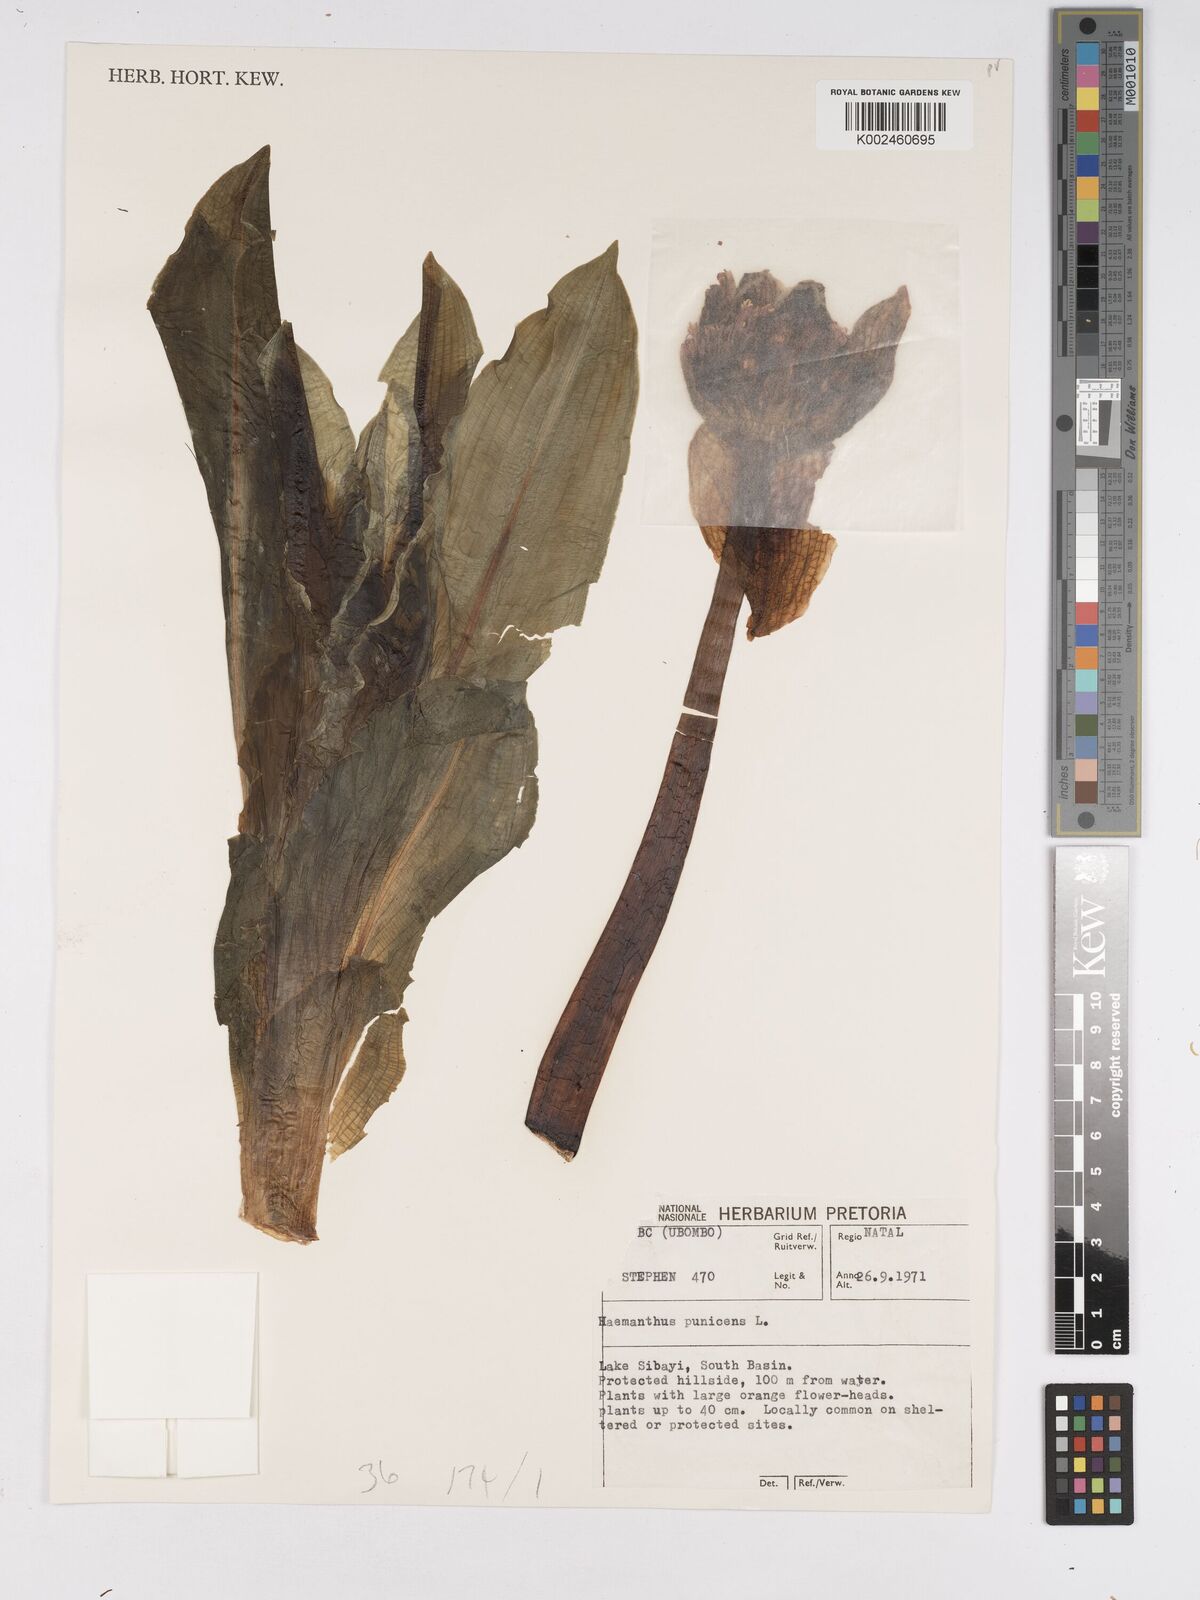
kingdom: Plantae
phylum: Tracheophyta
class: Liliopsida
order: Asparagales
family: Amaryllidaceae
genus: Scadoxus
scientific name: Scadoxus puniceus
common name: Royal-paintbrush
